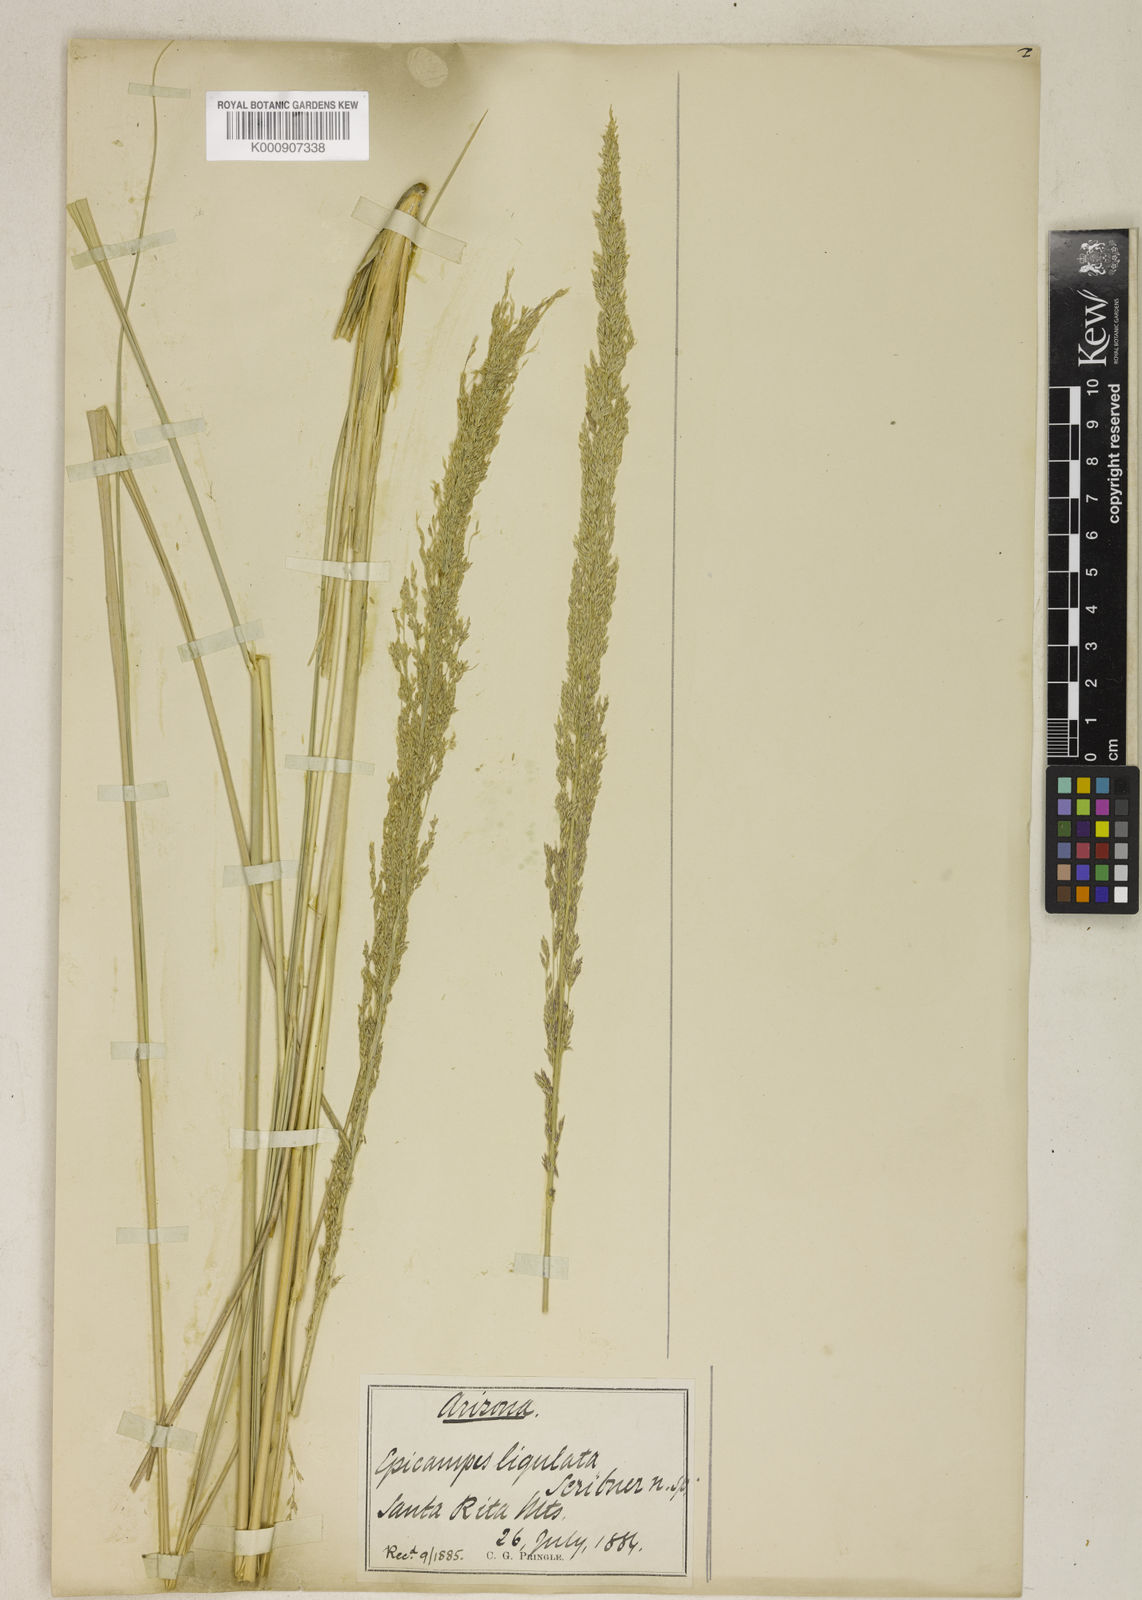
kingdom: Plantae
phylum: Tracheophyta
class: Liliopsida
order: Poales
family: Poaceae
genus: Muhlenbergia
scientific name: Muhlenbergia longiligula
